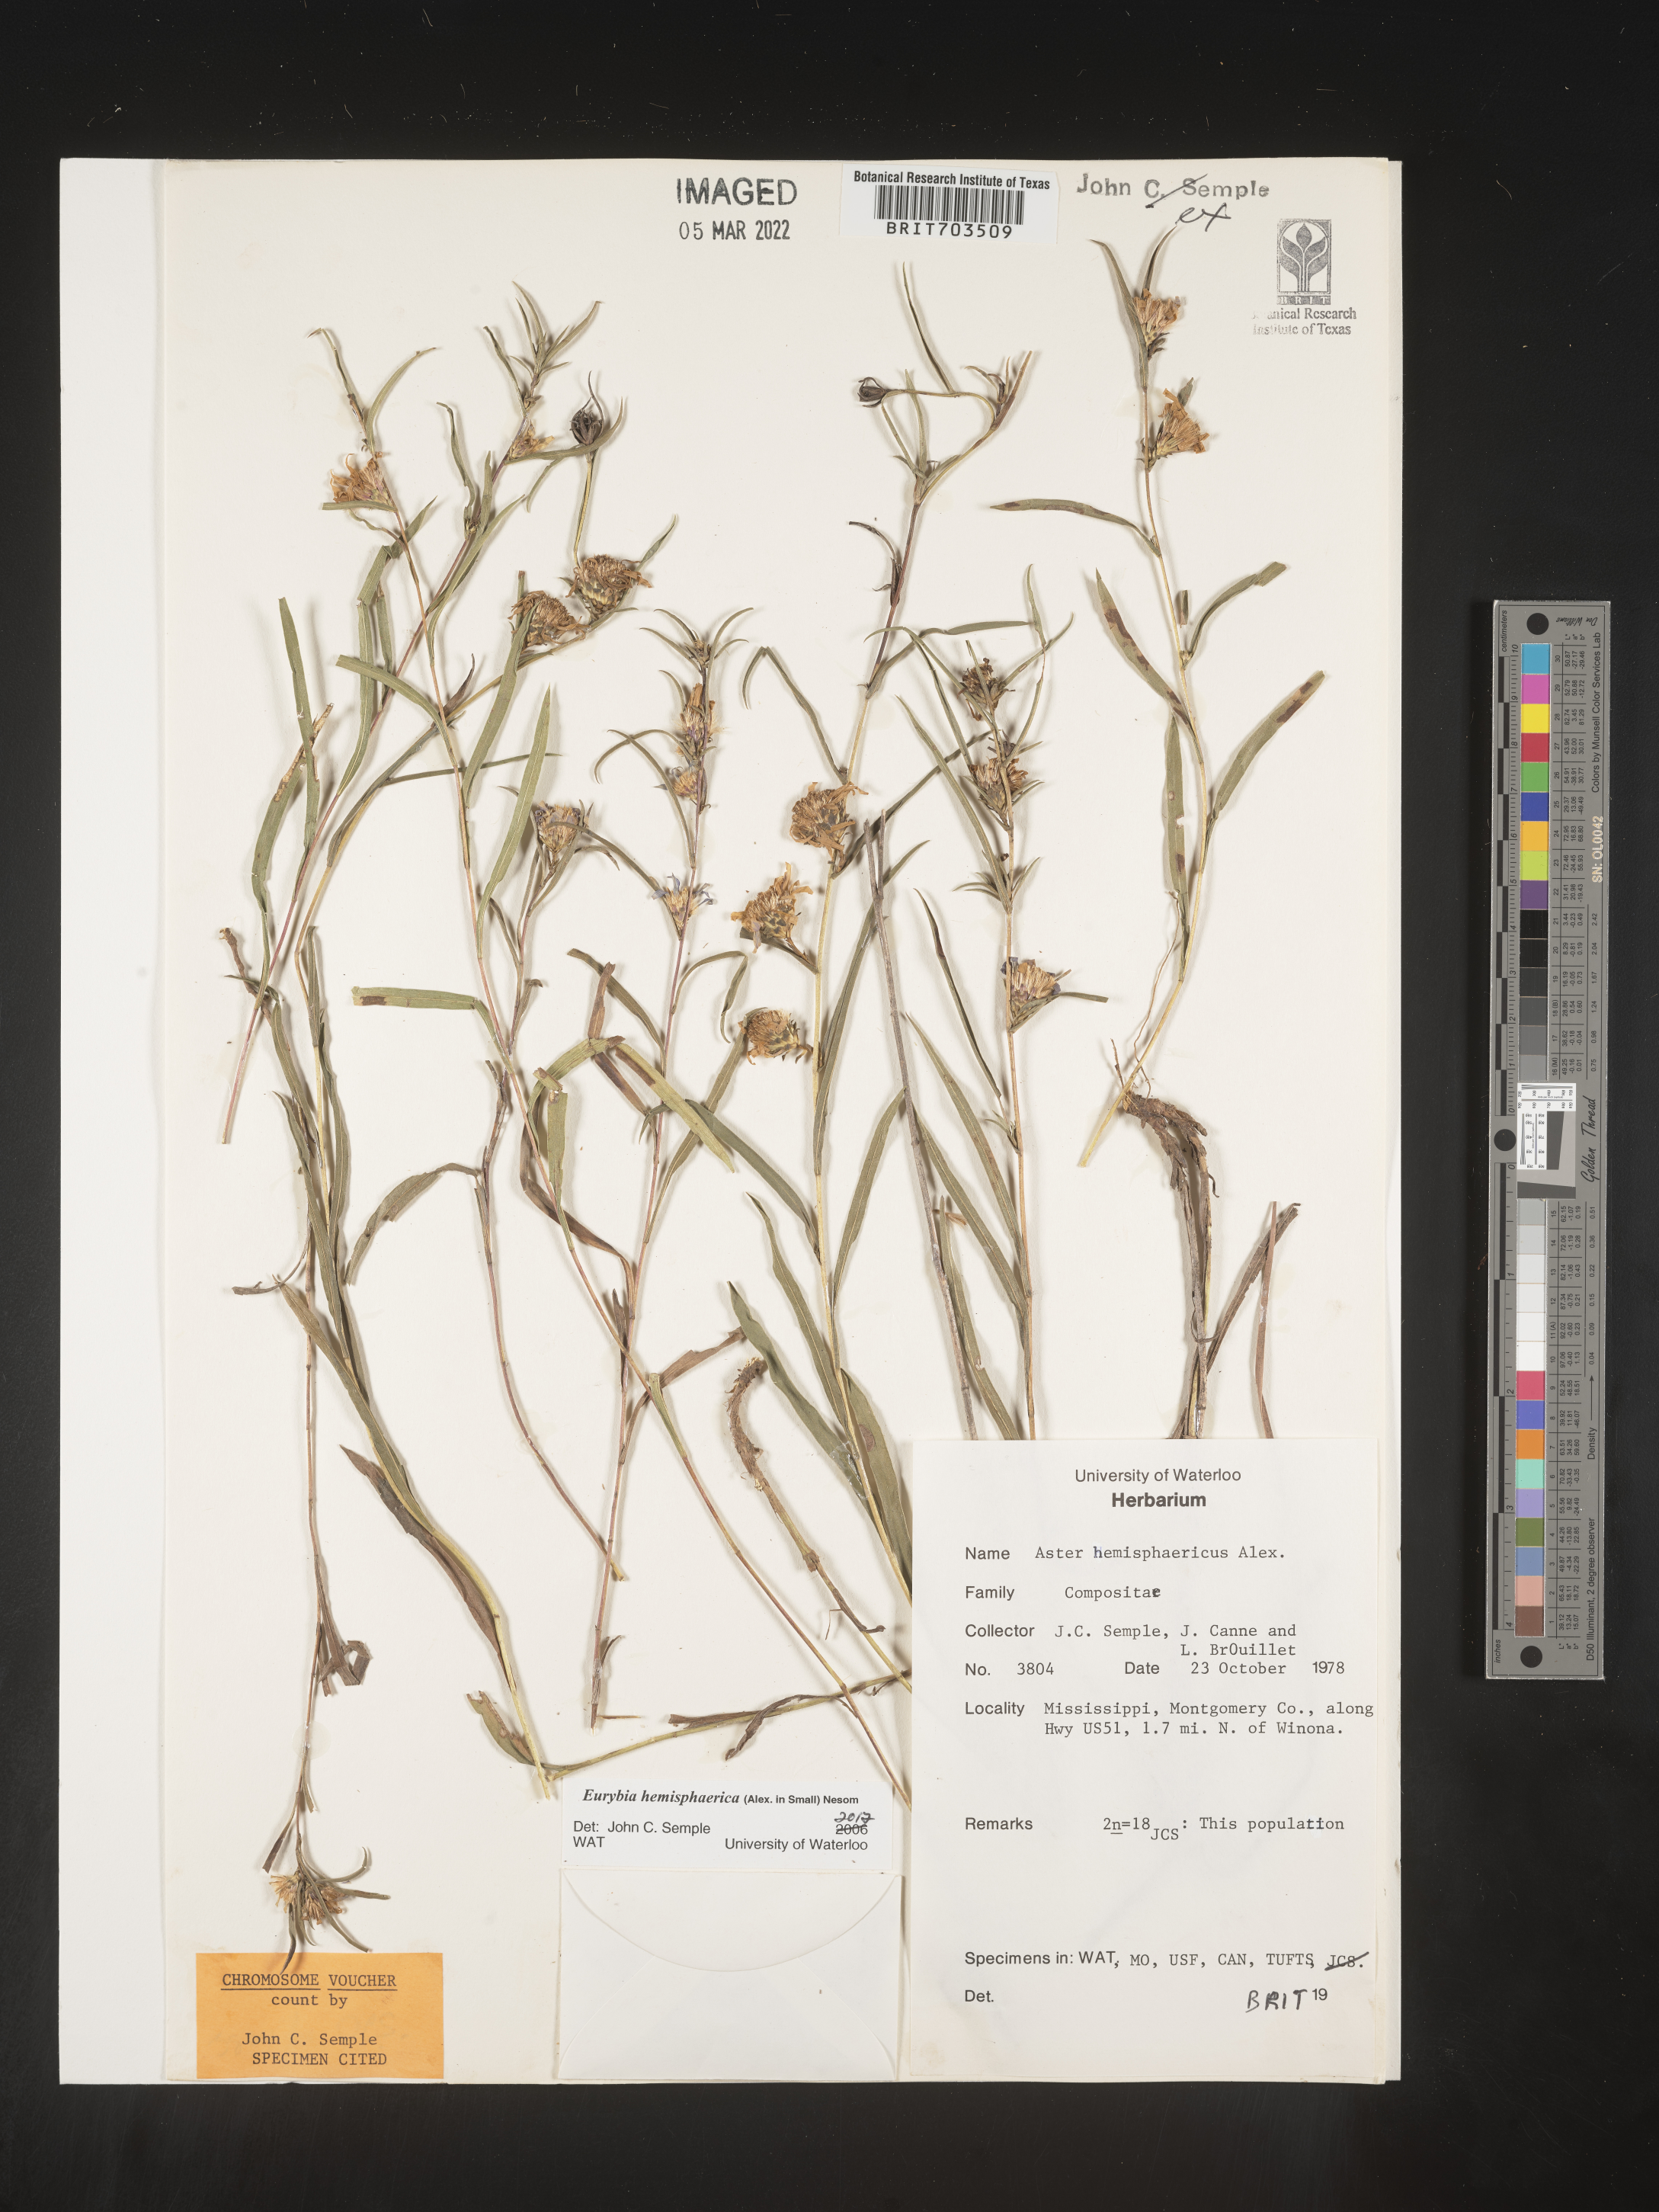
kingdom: Plantae
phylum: Tracheophyta
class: Magnoliopsida
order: Asterales
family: Asteraceae
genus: Eurybia
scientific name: Eurybia hemispherica
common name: Showy aster
